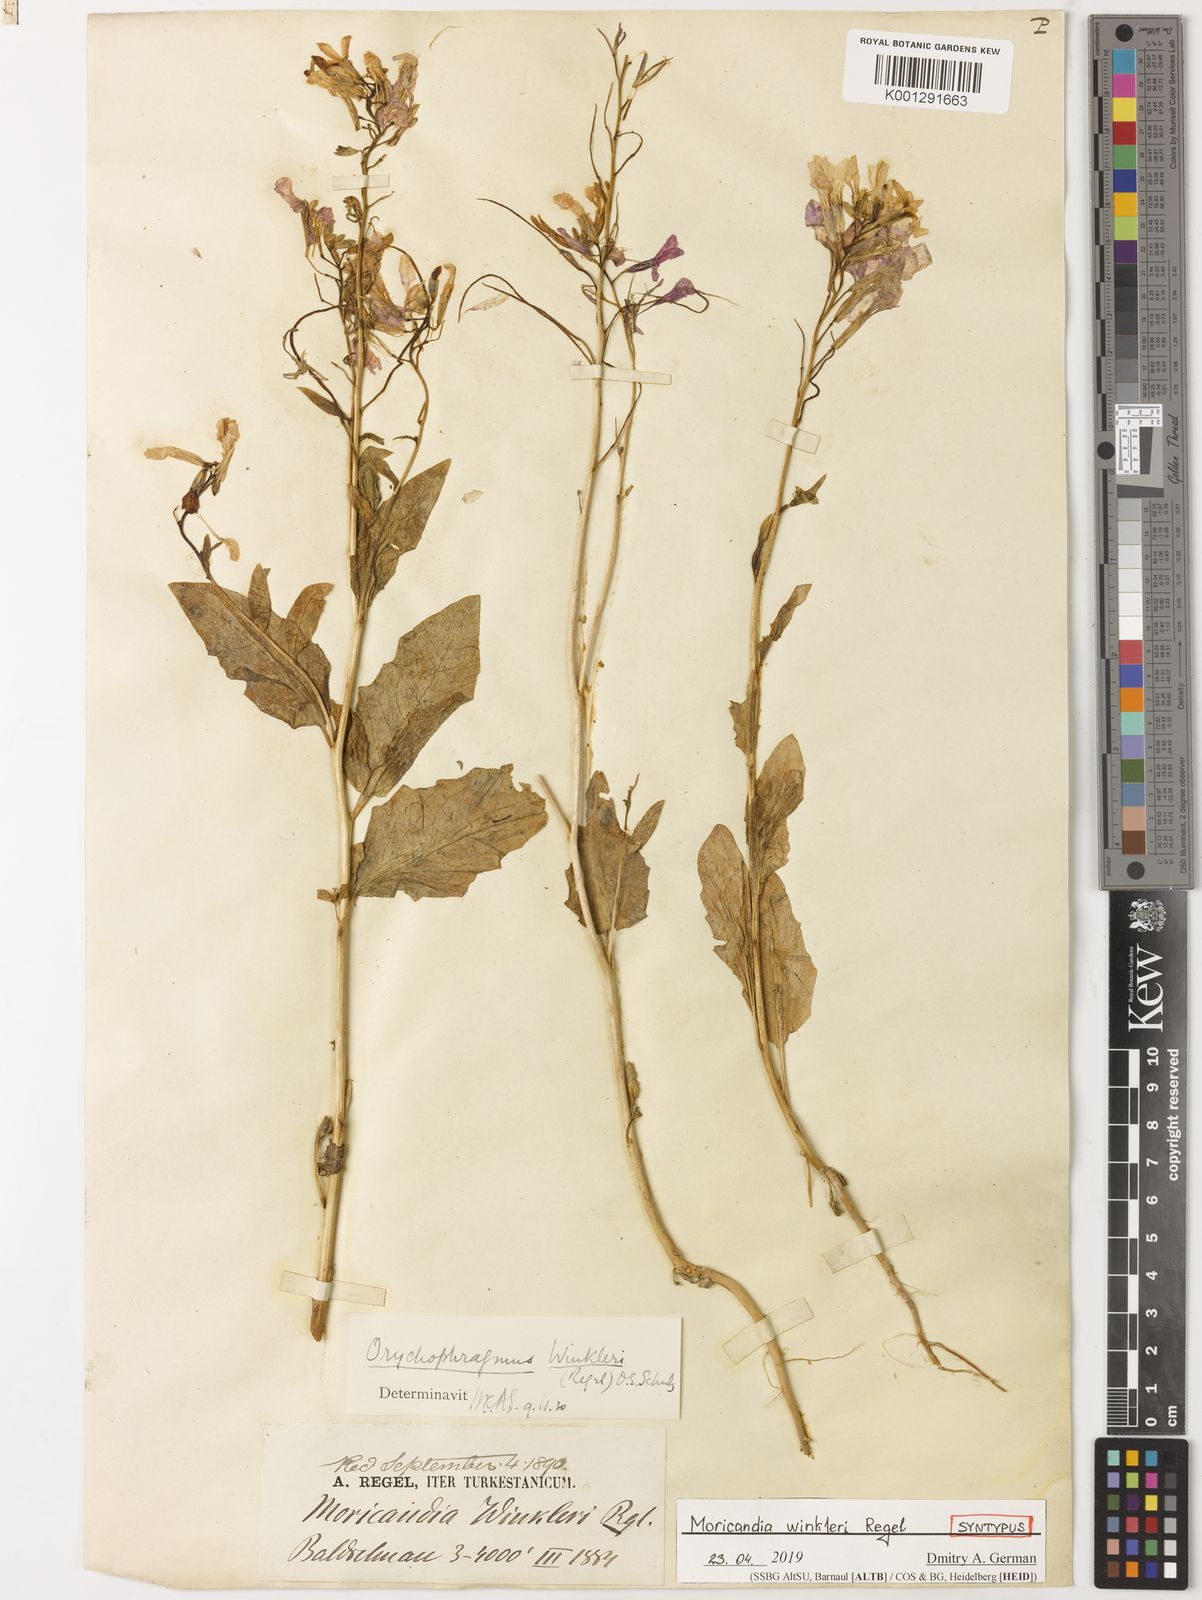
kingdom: Plantae
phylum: Tracheophyta
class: Magnoliopsida
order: Brassicales
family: Brassicaceae
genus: Spryginia
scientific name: Spryginia winkleri
